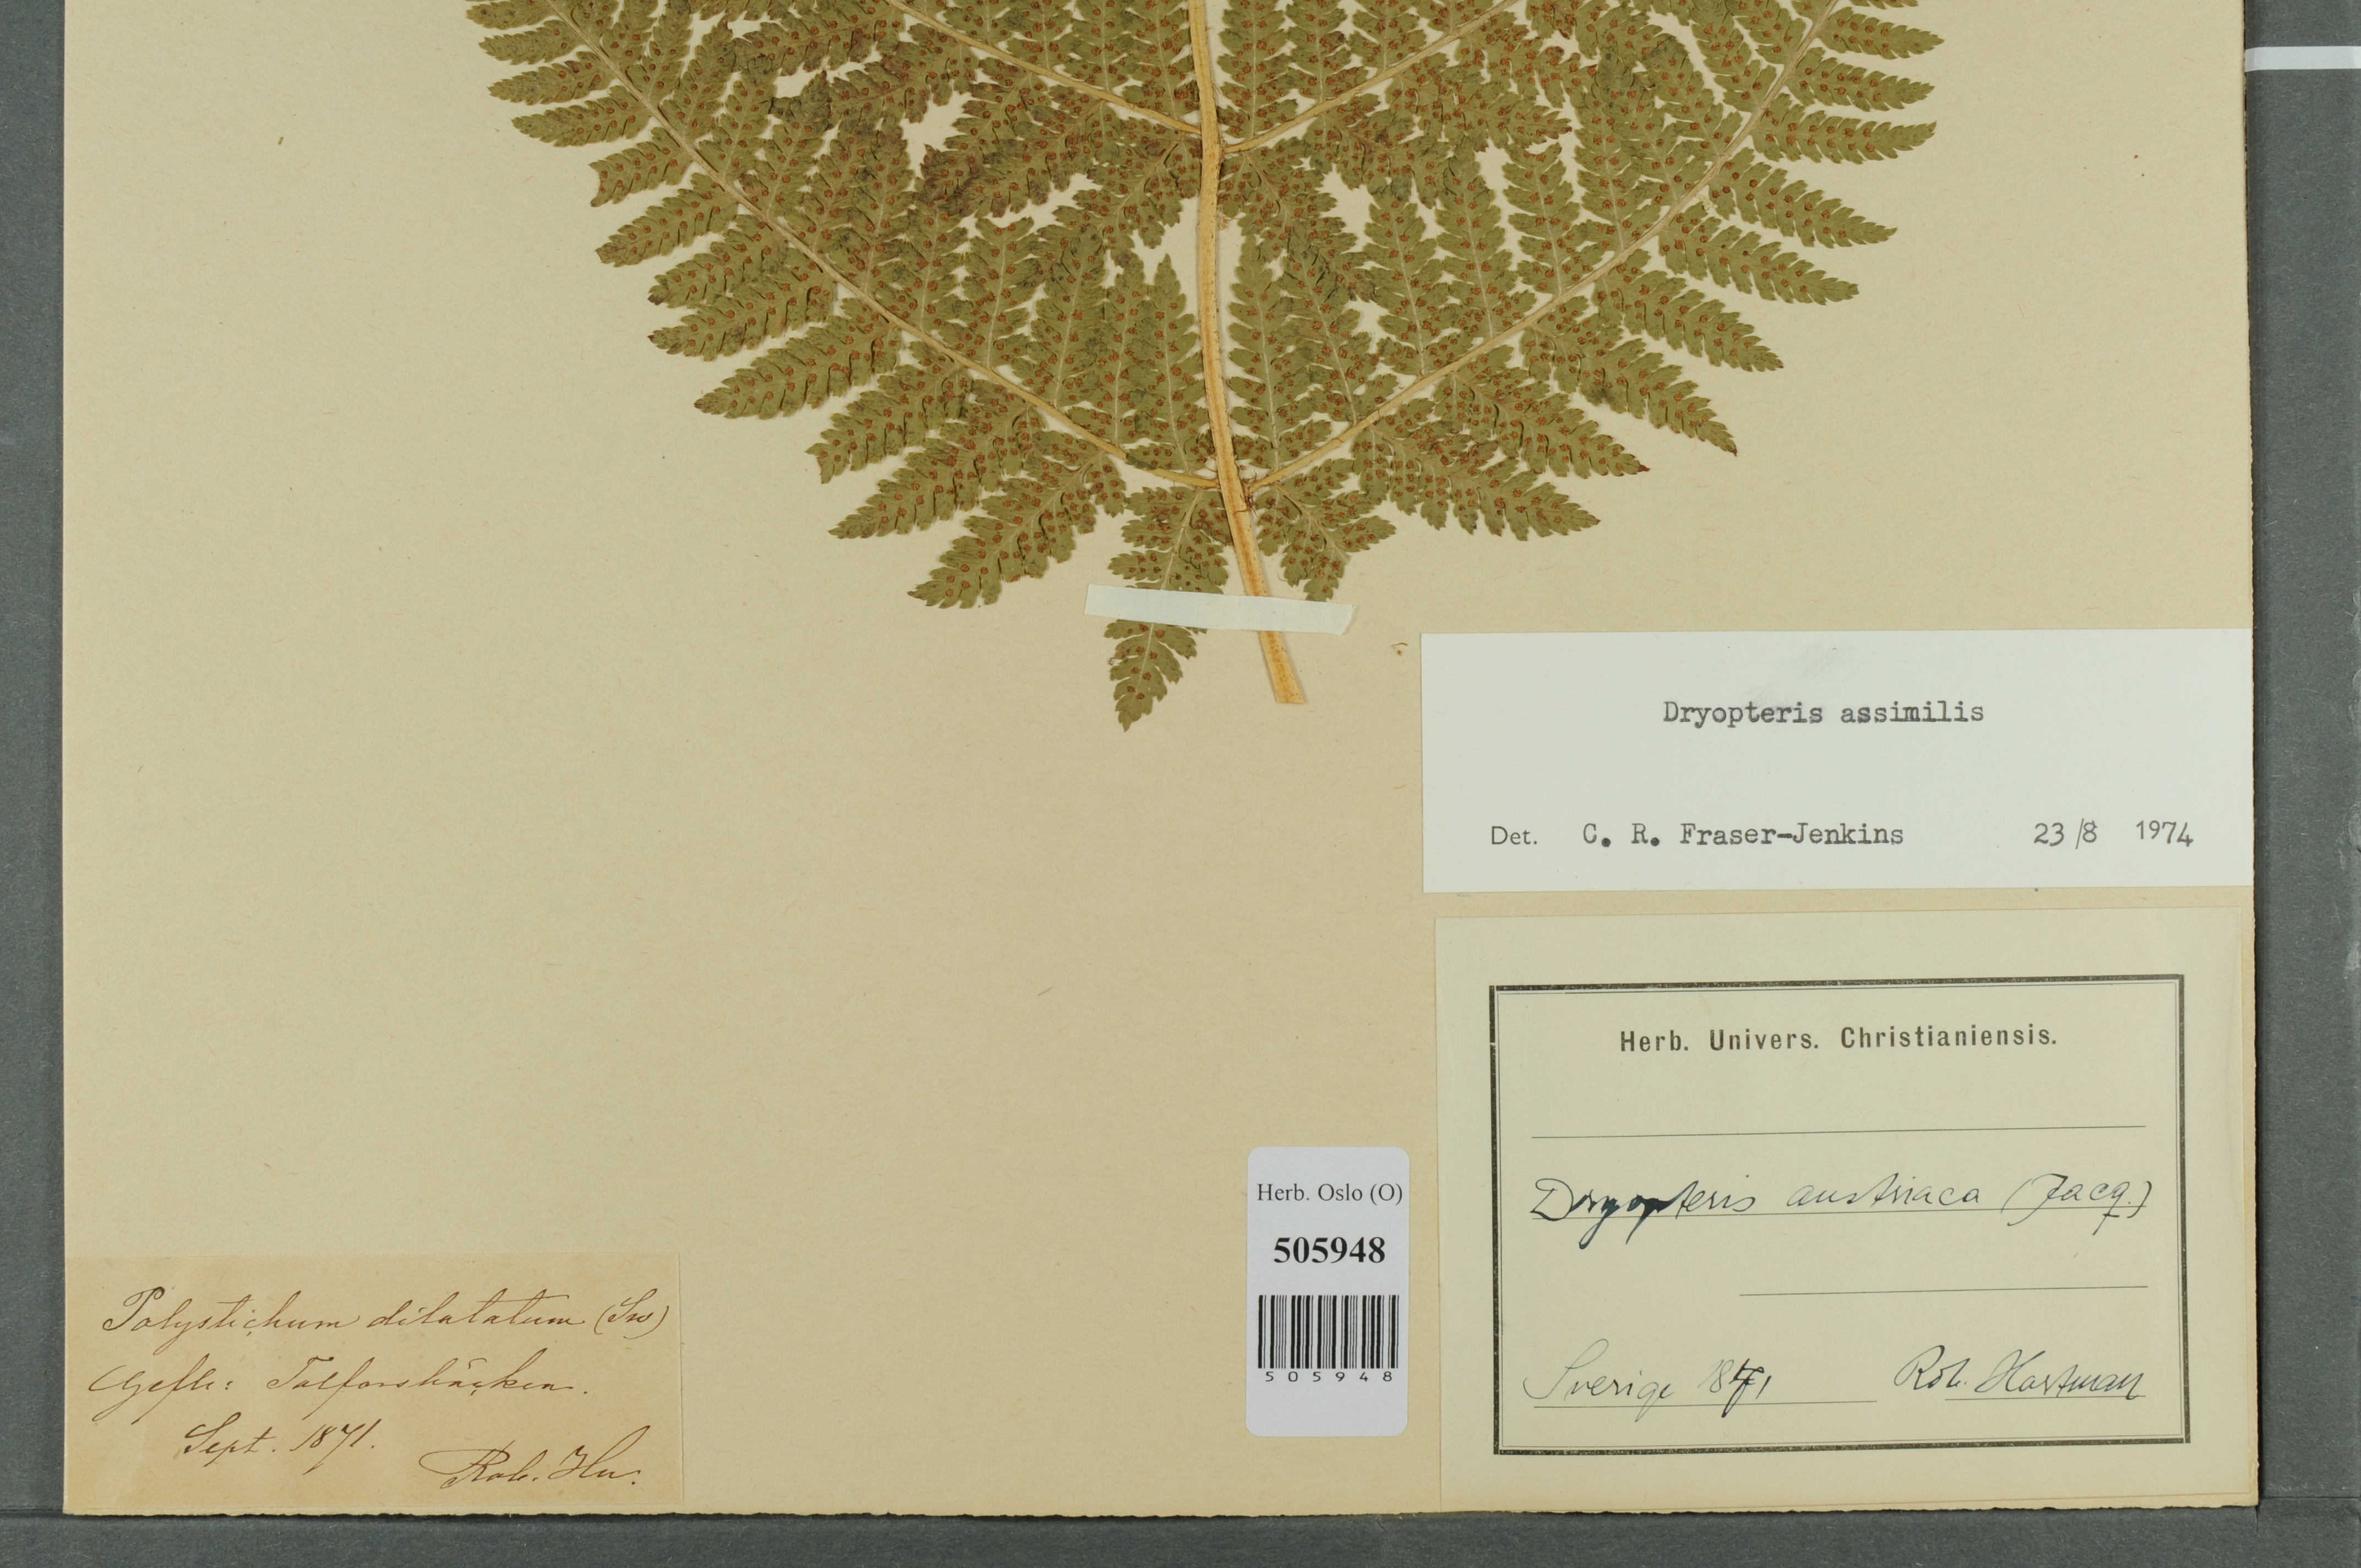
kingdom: Plantae
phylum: Tracheophyta
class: Polypodiopsida
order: Polypodiales
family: Dryopteridaceae
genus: Dryopteris
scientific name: Dryopteris expansa
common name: Northern buckler fern
